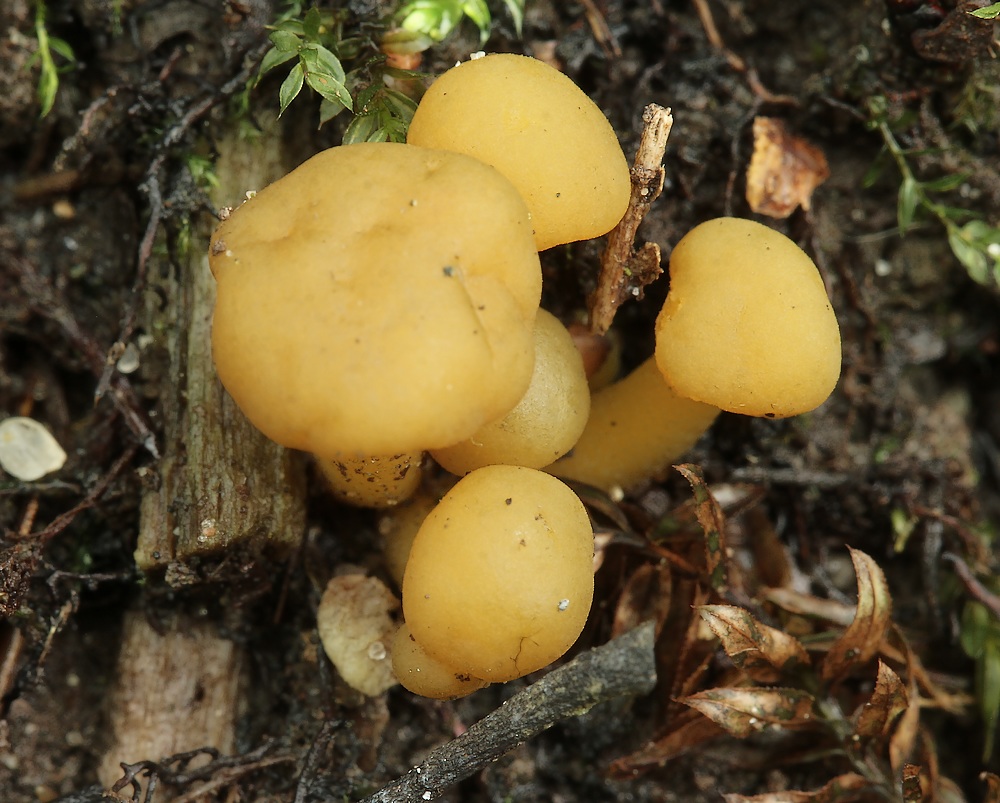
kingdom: Fungi
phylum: Ascomycota
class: Leotiomycetes
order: Leotiales
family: Leotiaceae
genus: Leotia
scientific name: Leotia lubrica
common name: ravsvamp
